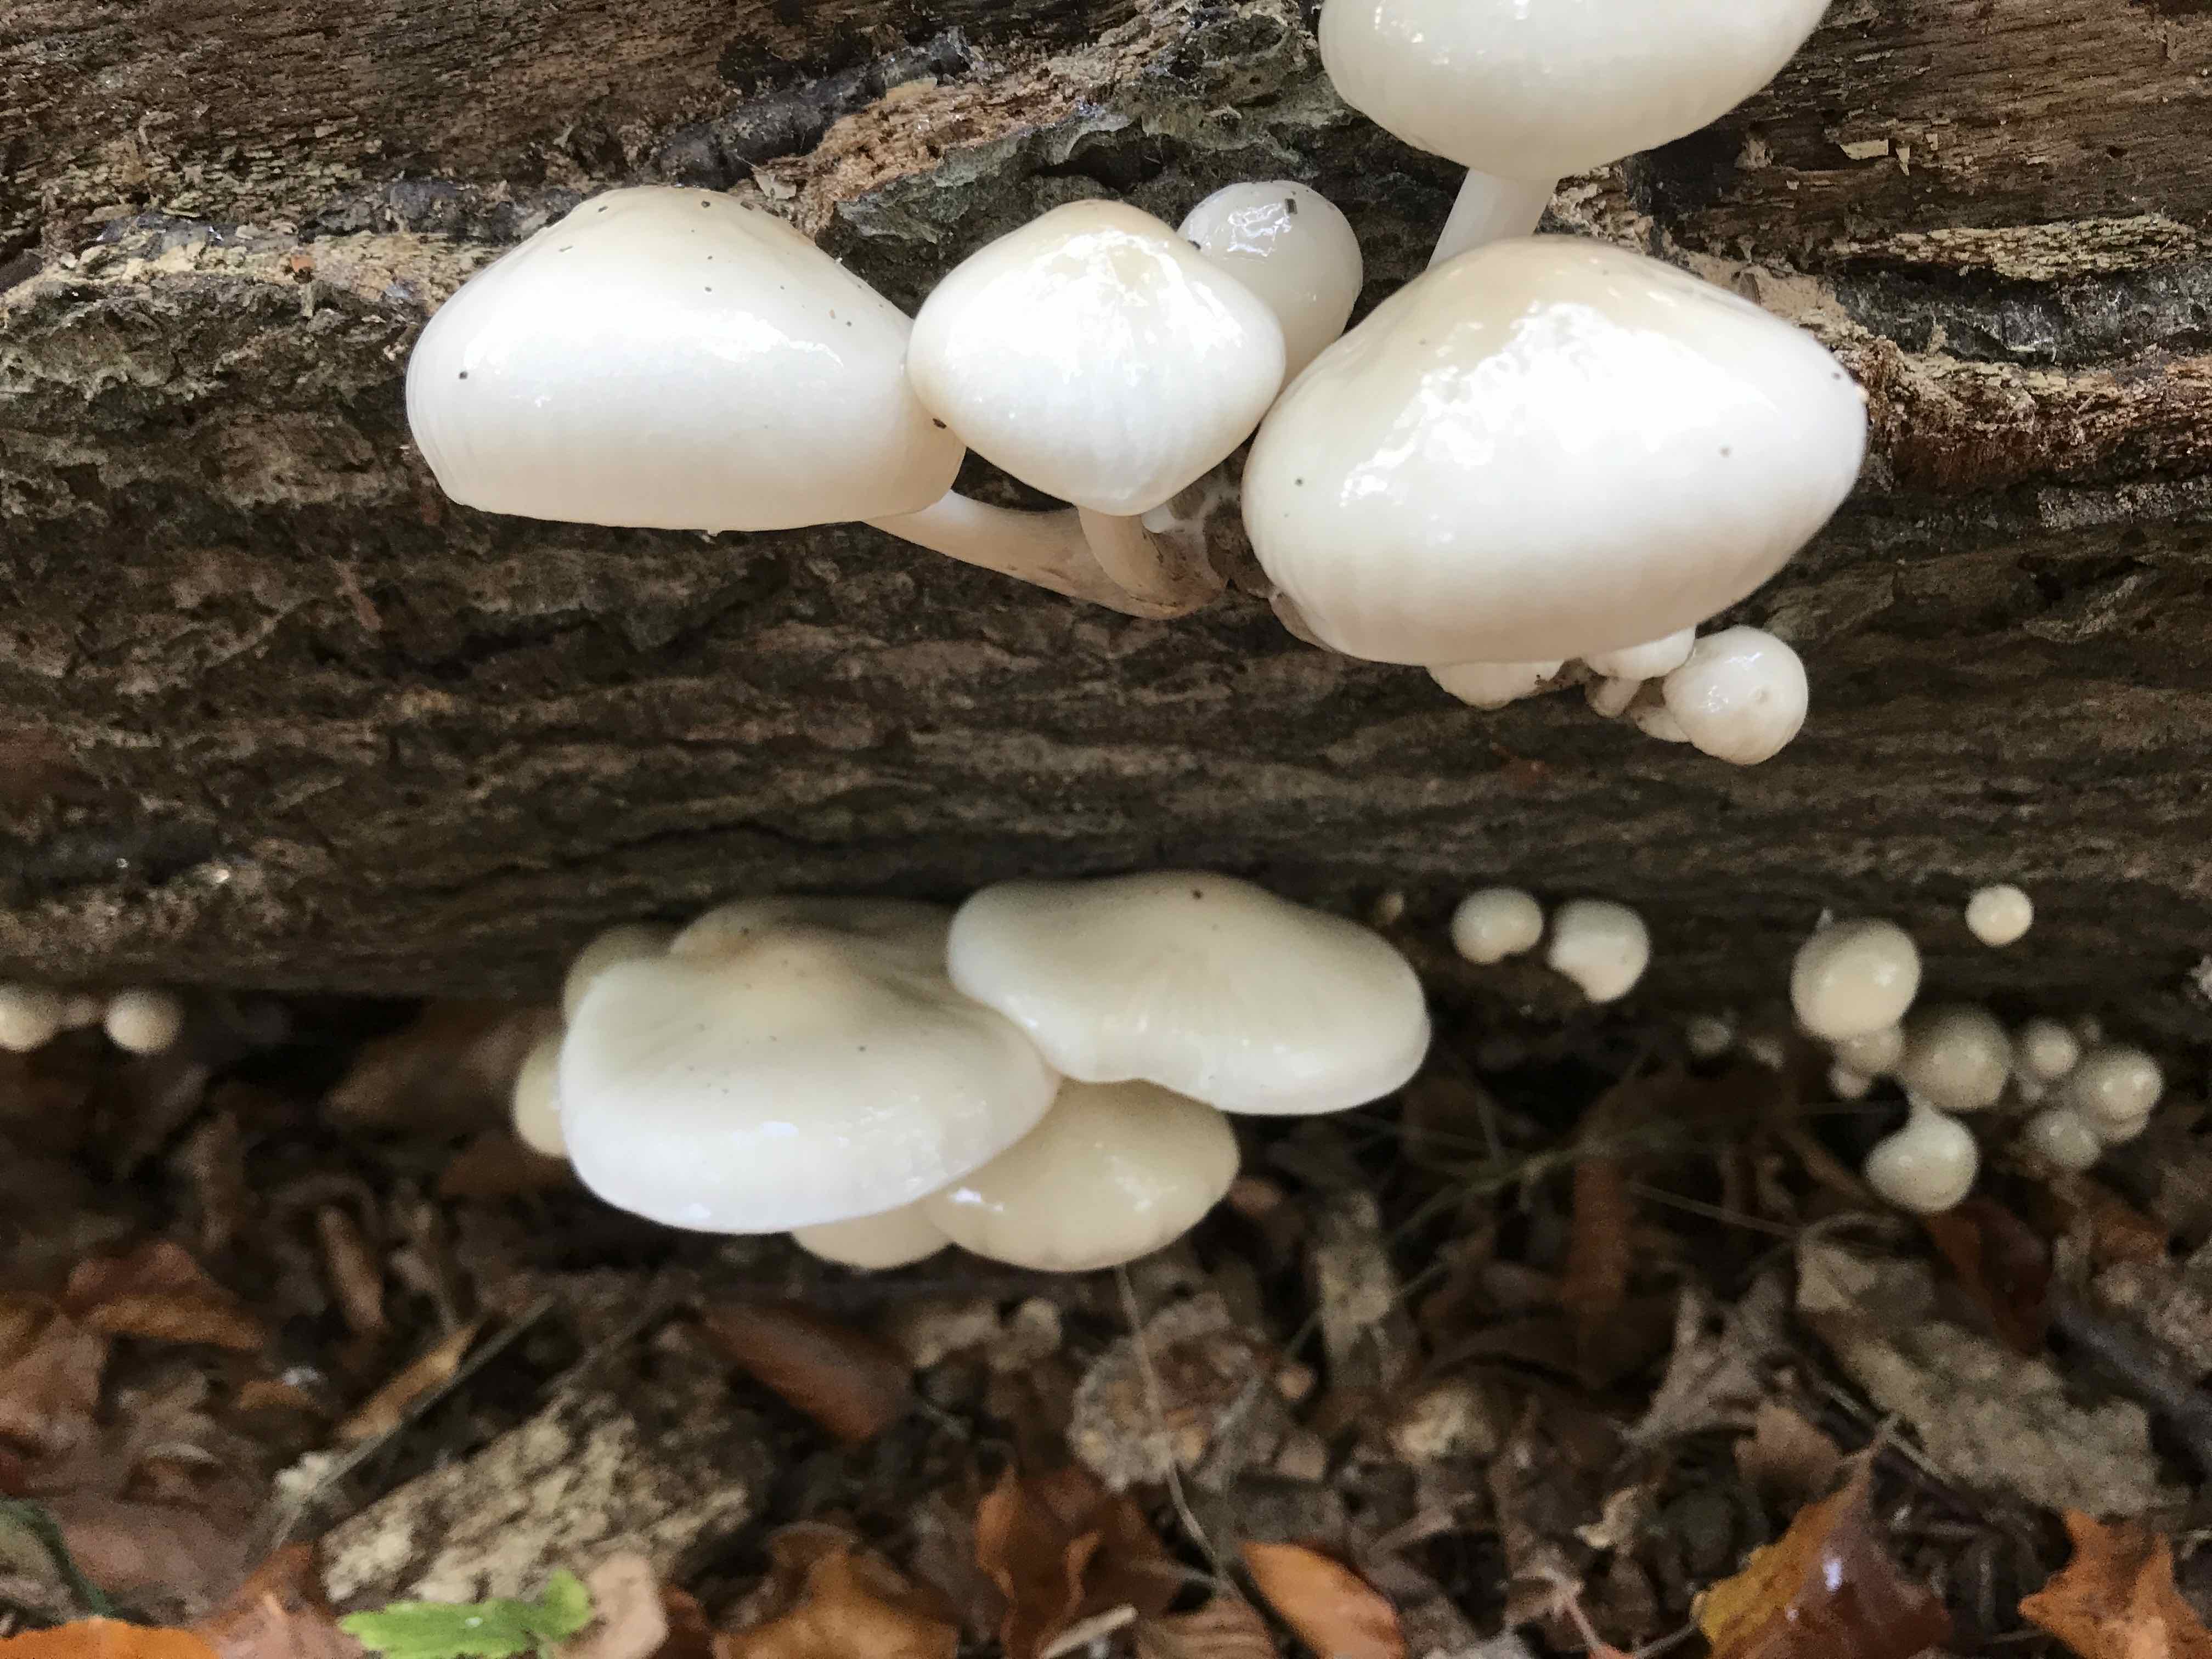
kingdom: Fungi
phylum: Basidiomycota
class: Agaricomycetes
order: Agaricales
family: Physalacriaceae
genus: Mucidula
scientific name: Mucidula mucida
